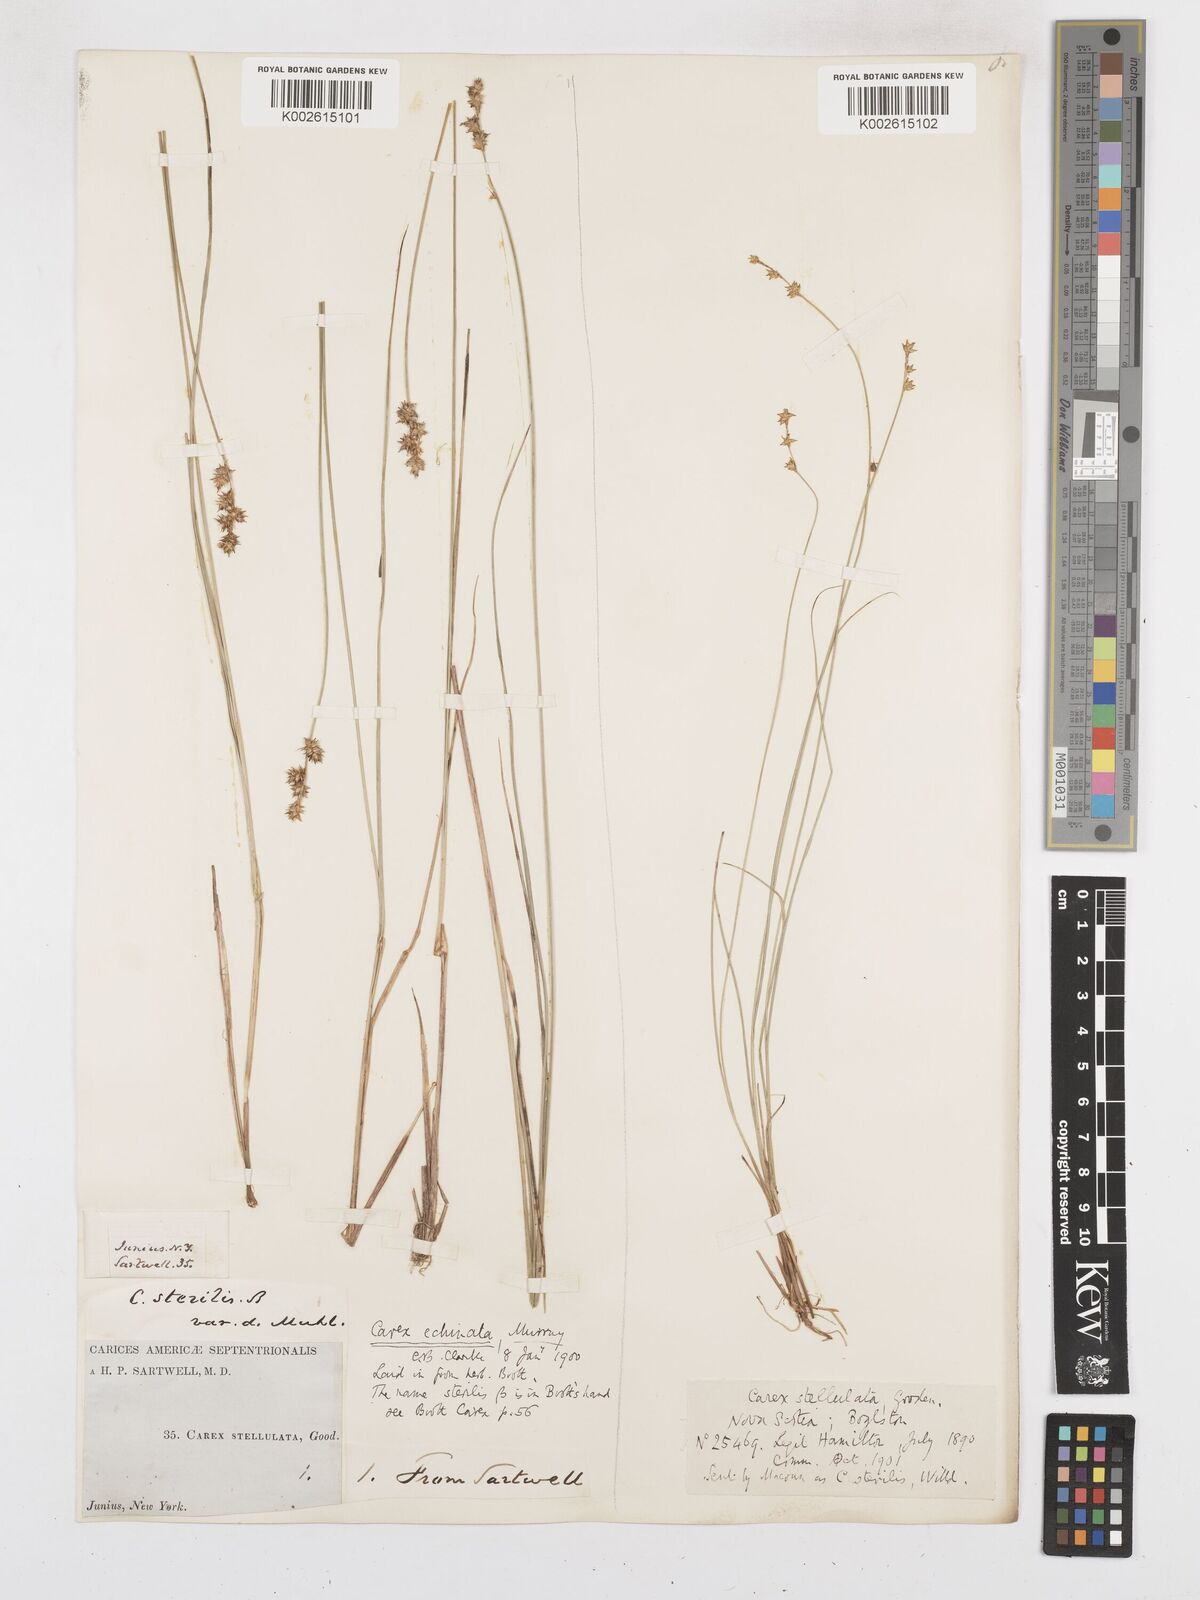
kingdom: Plantae
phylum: Tracheophyta
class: Liliopsida
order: Poales
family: Cyperaceae
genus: Carex
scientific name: Carex echinata
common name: Star sedge
